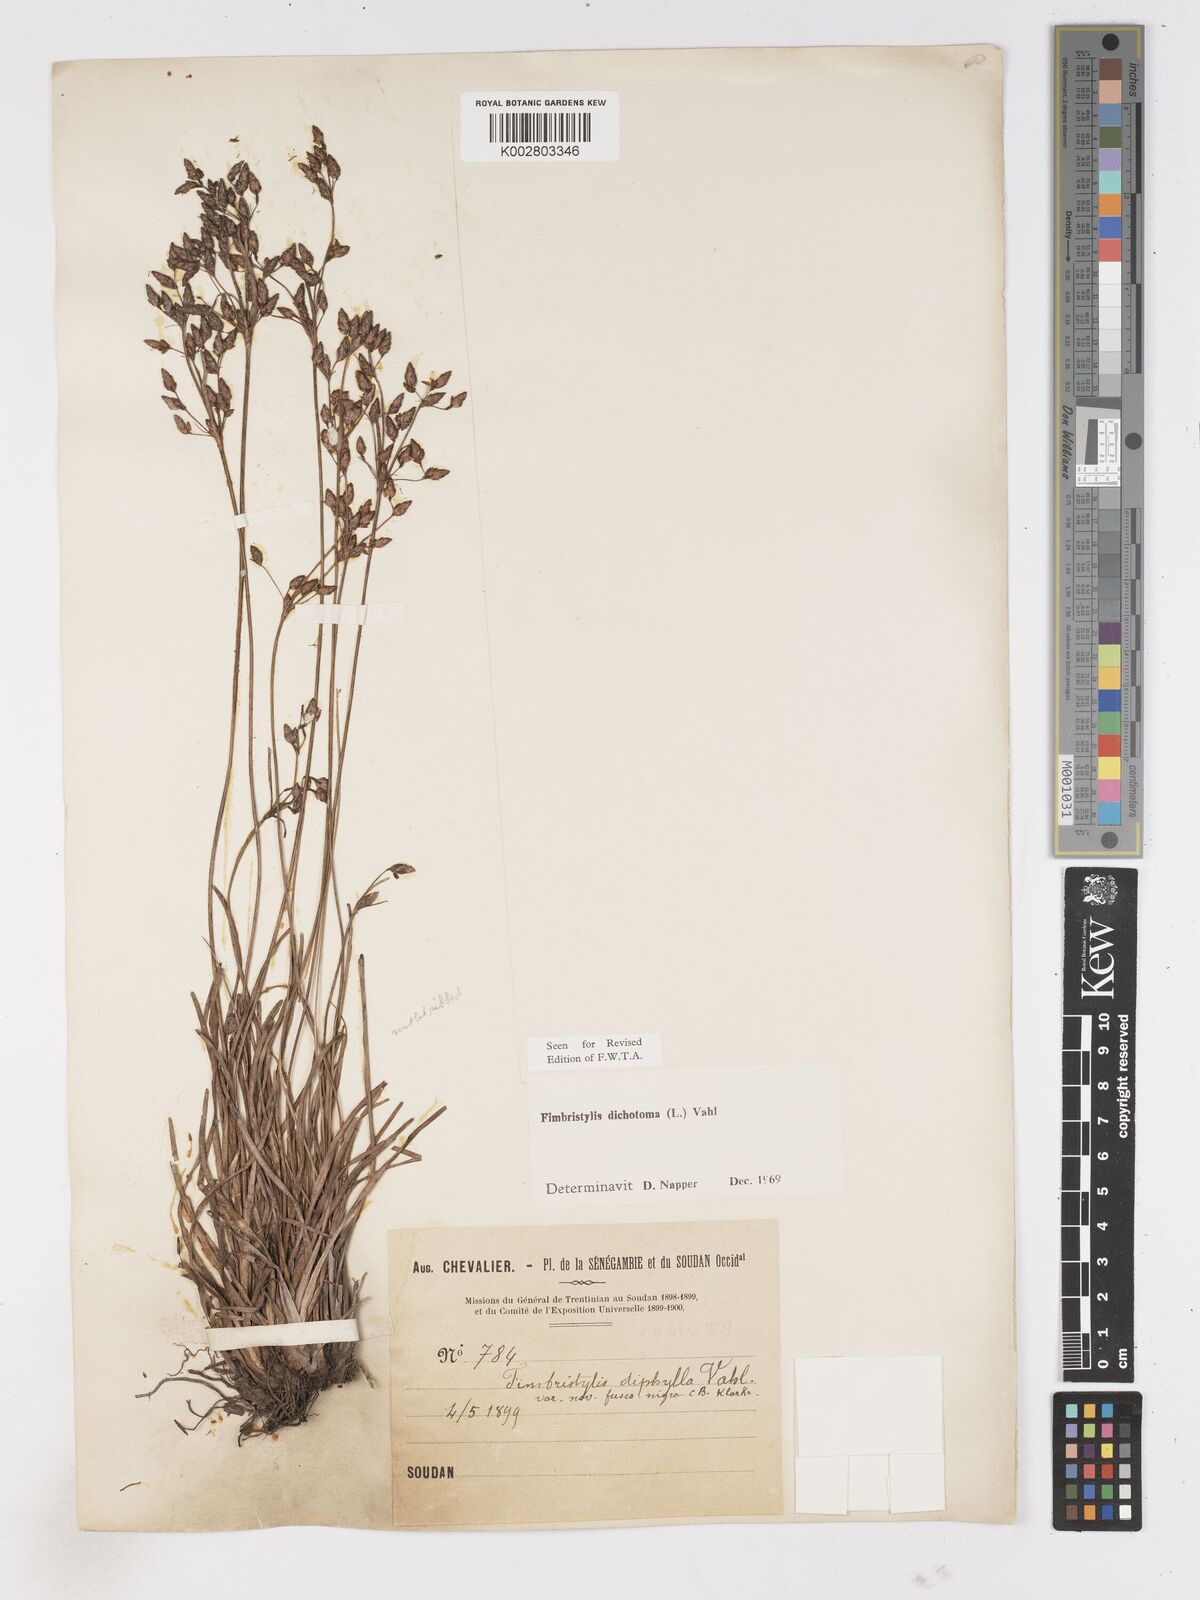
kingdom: Plantae
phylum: Tracheophyta
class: Liliopsida
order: Poales
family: Cyperaceae
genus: Fimbristylis
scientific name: Fimbristylis dichotoma
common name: Forked fimbry
